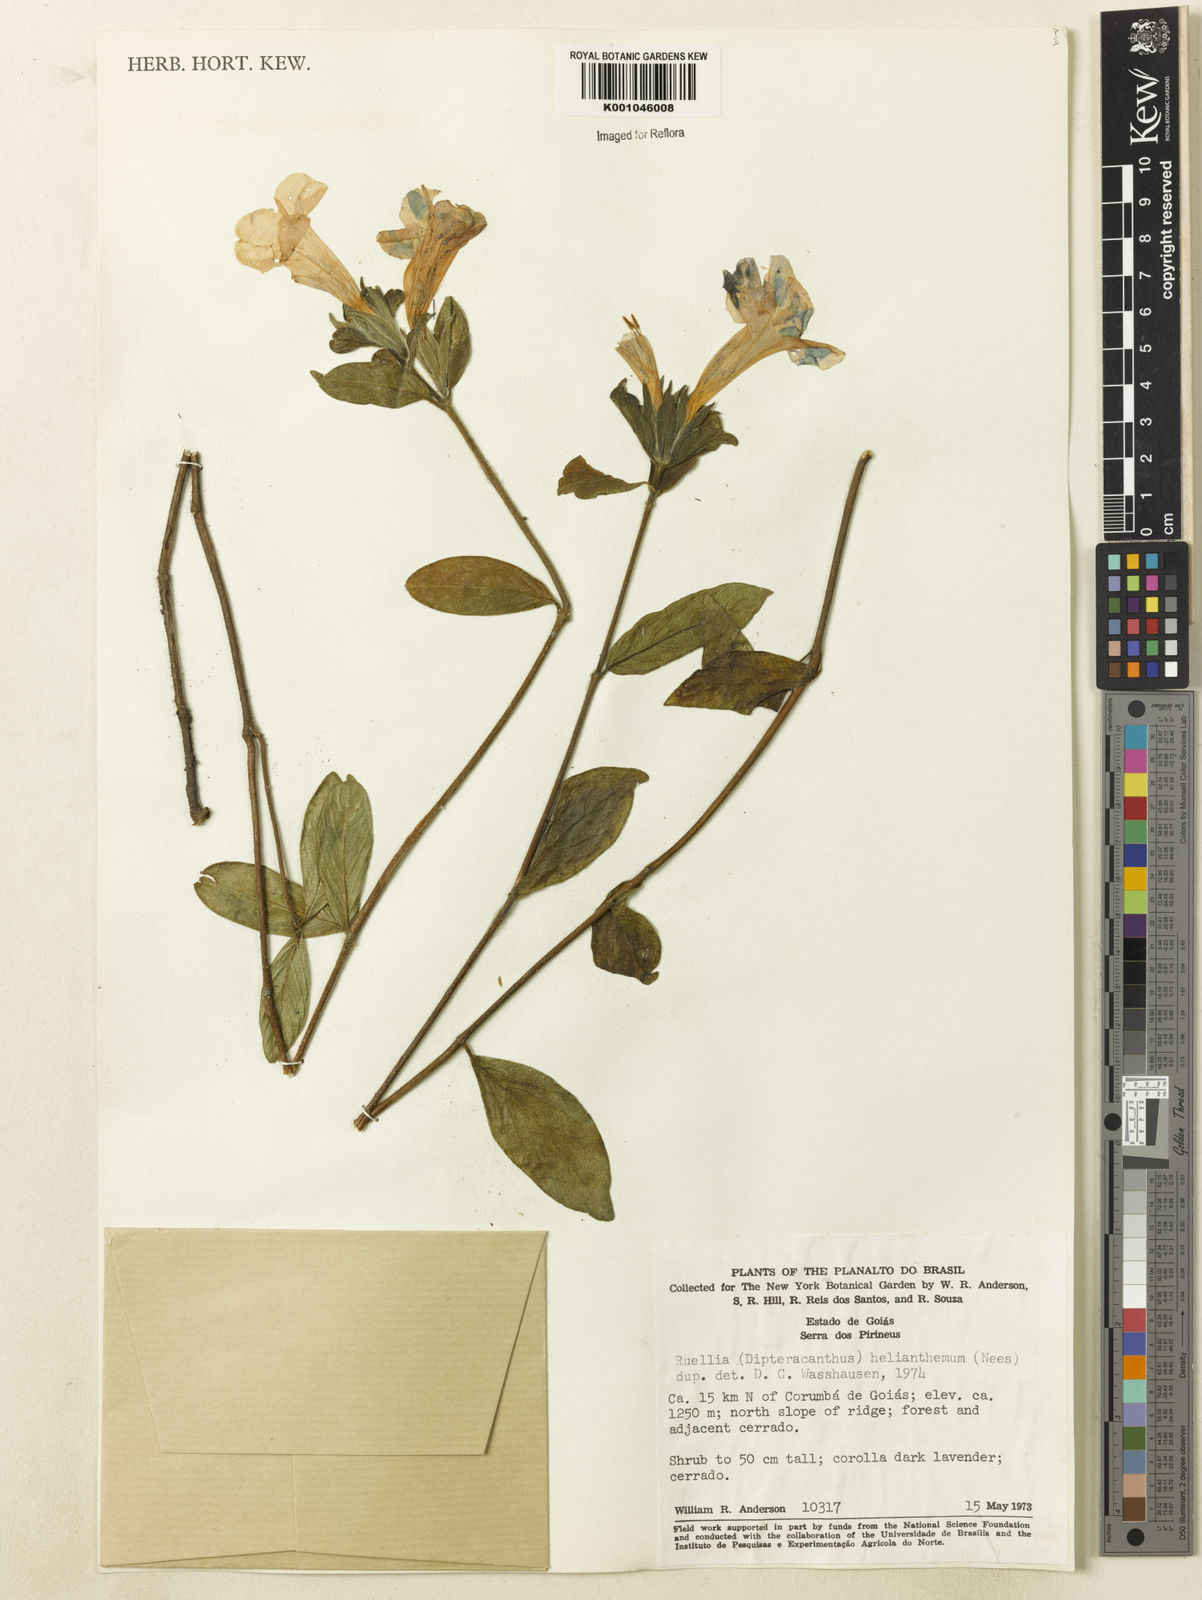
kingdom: Plantae
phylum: Tracheophyta
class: Magnoliopsida
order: Lamiales
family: Acanthaceae
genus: Ruellia
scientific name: Ruellia helianthema
